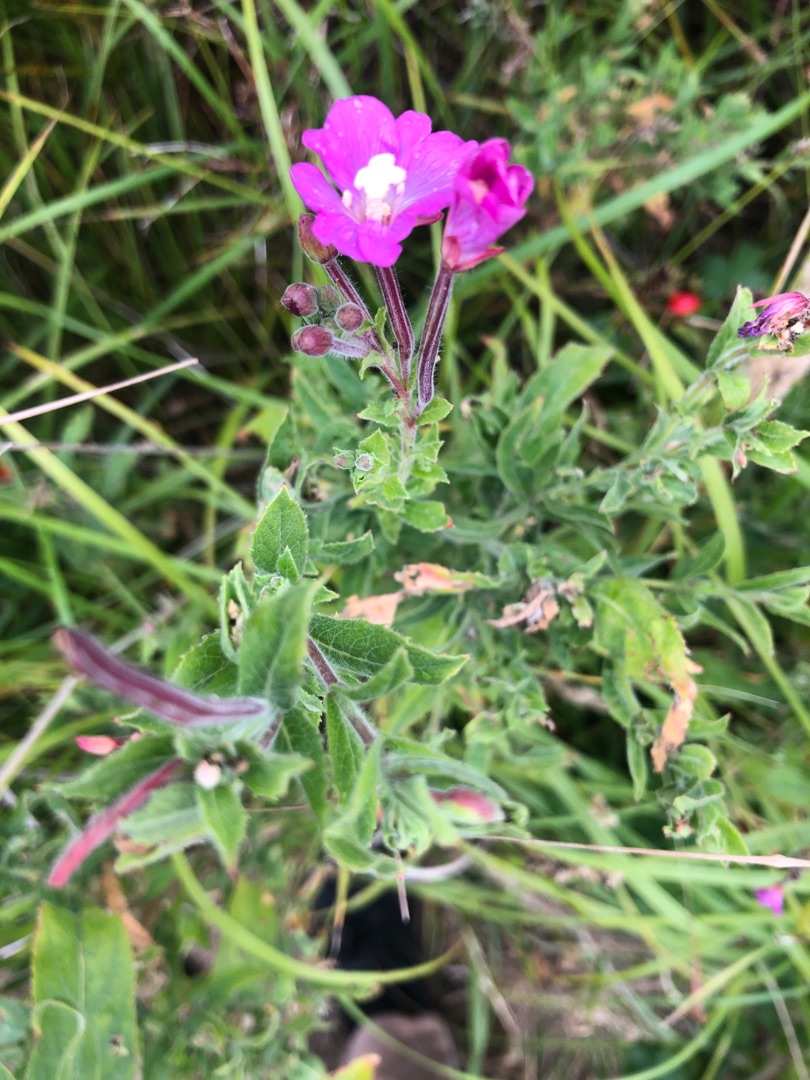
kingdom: Plantae
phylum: Tracheophyta
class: Magnoliopsida
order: Myrtales
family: Onagraceae
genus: Epilobium
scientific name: Epilobium hirsutum
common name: Lådden dueurt
